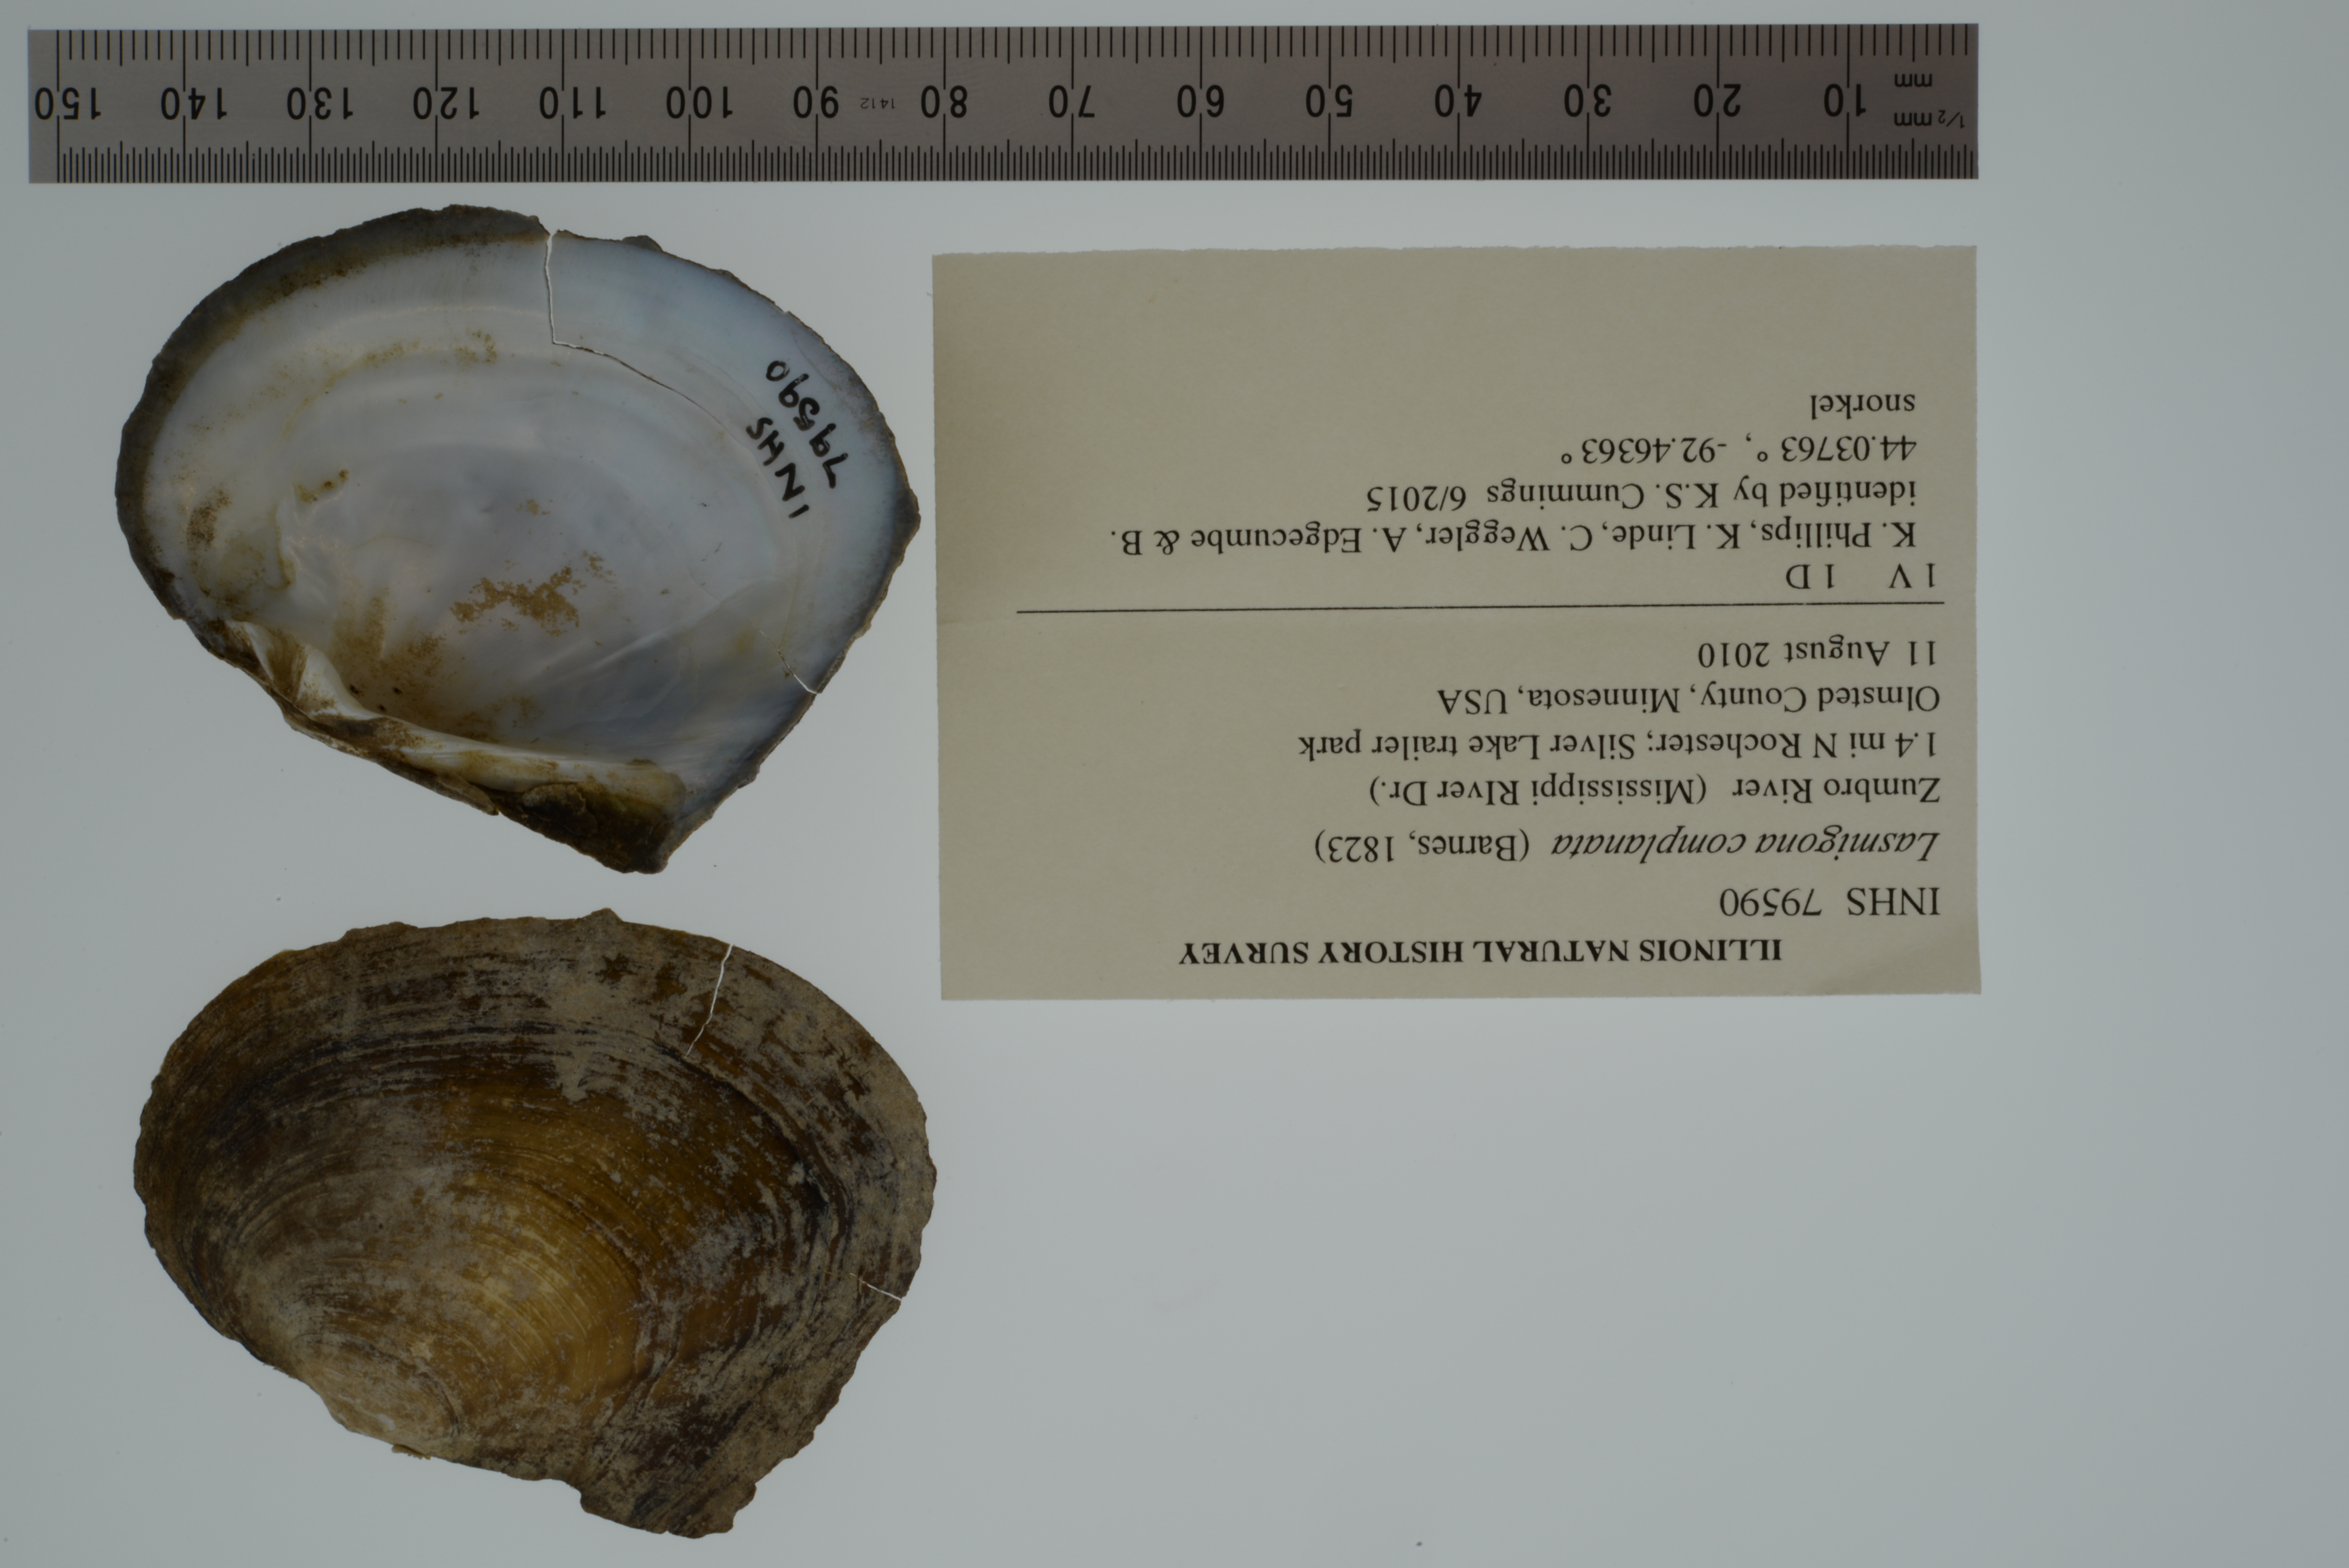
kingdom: Animalia
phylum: Mollusca
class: Bivalvia
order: Unionida
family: Unionidae
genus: Lasmigona
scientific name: Lasmigona complanata
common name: White heelsplitter
